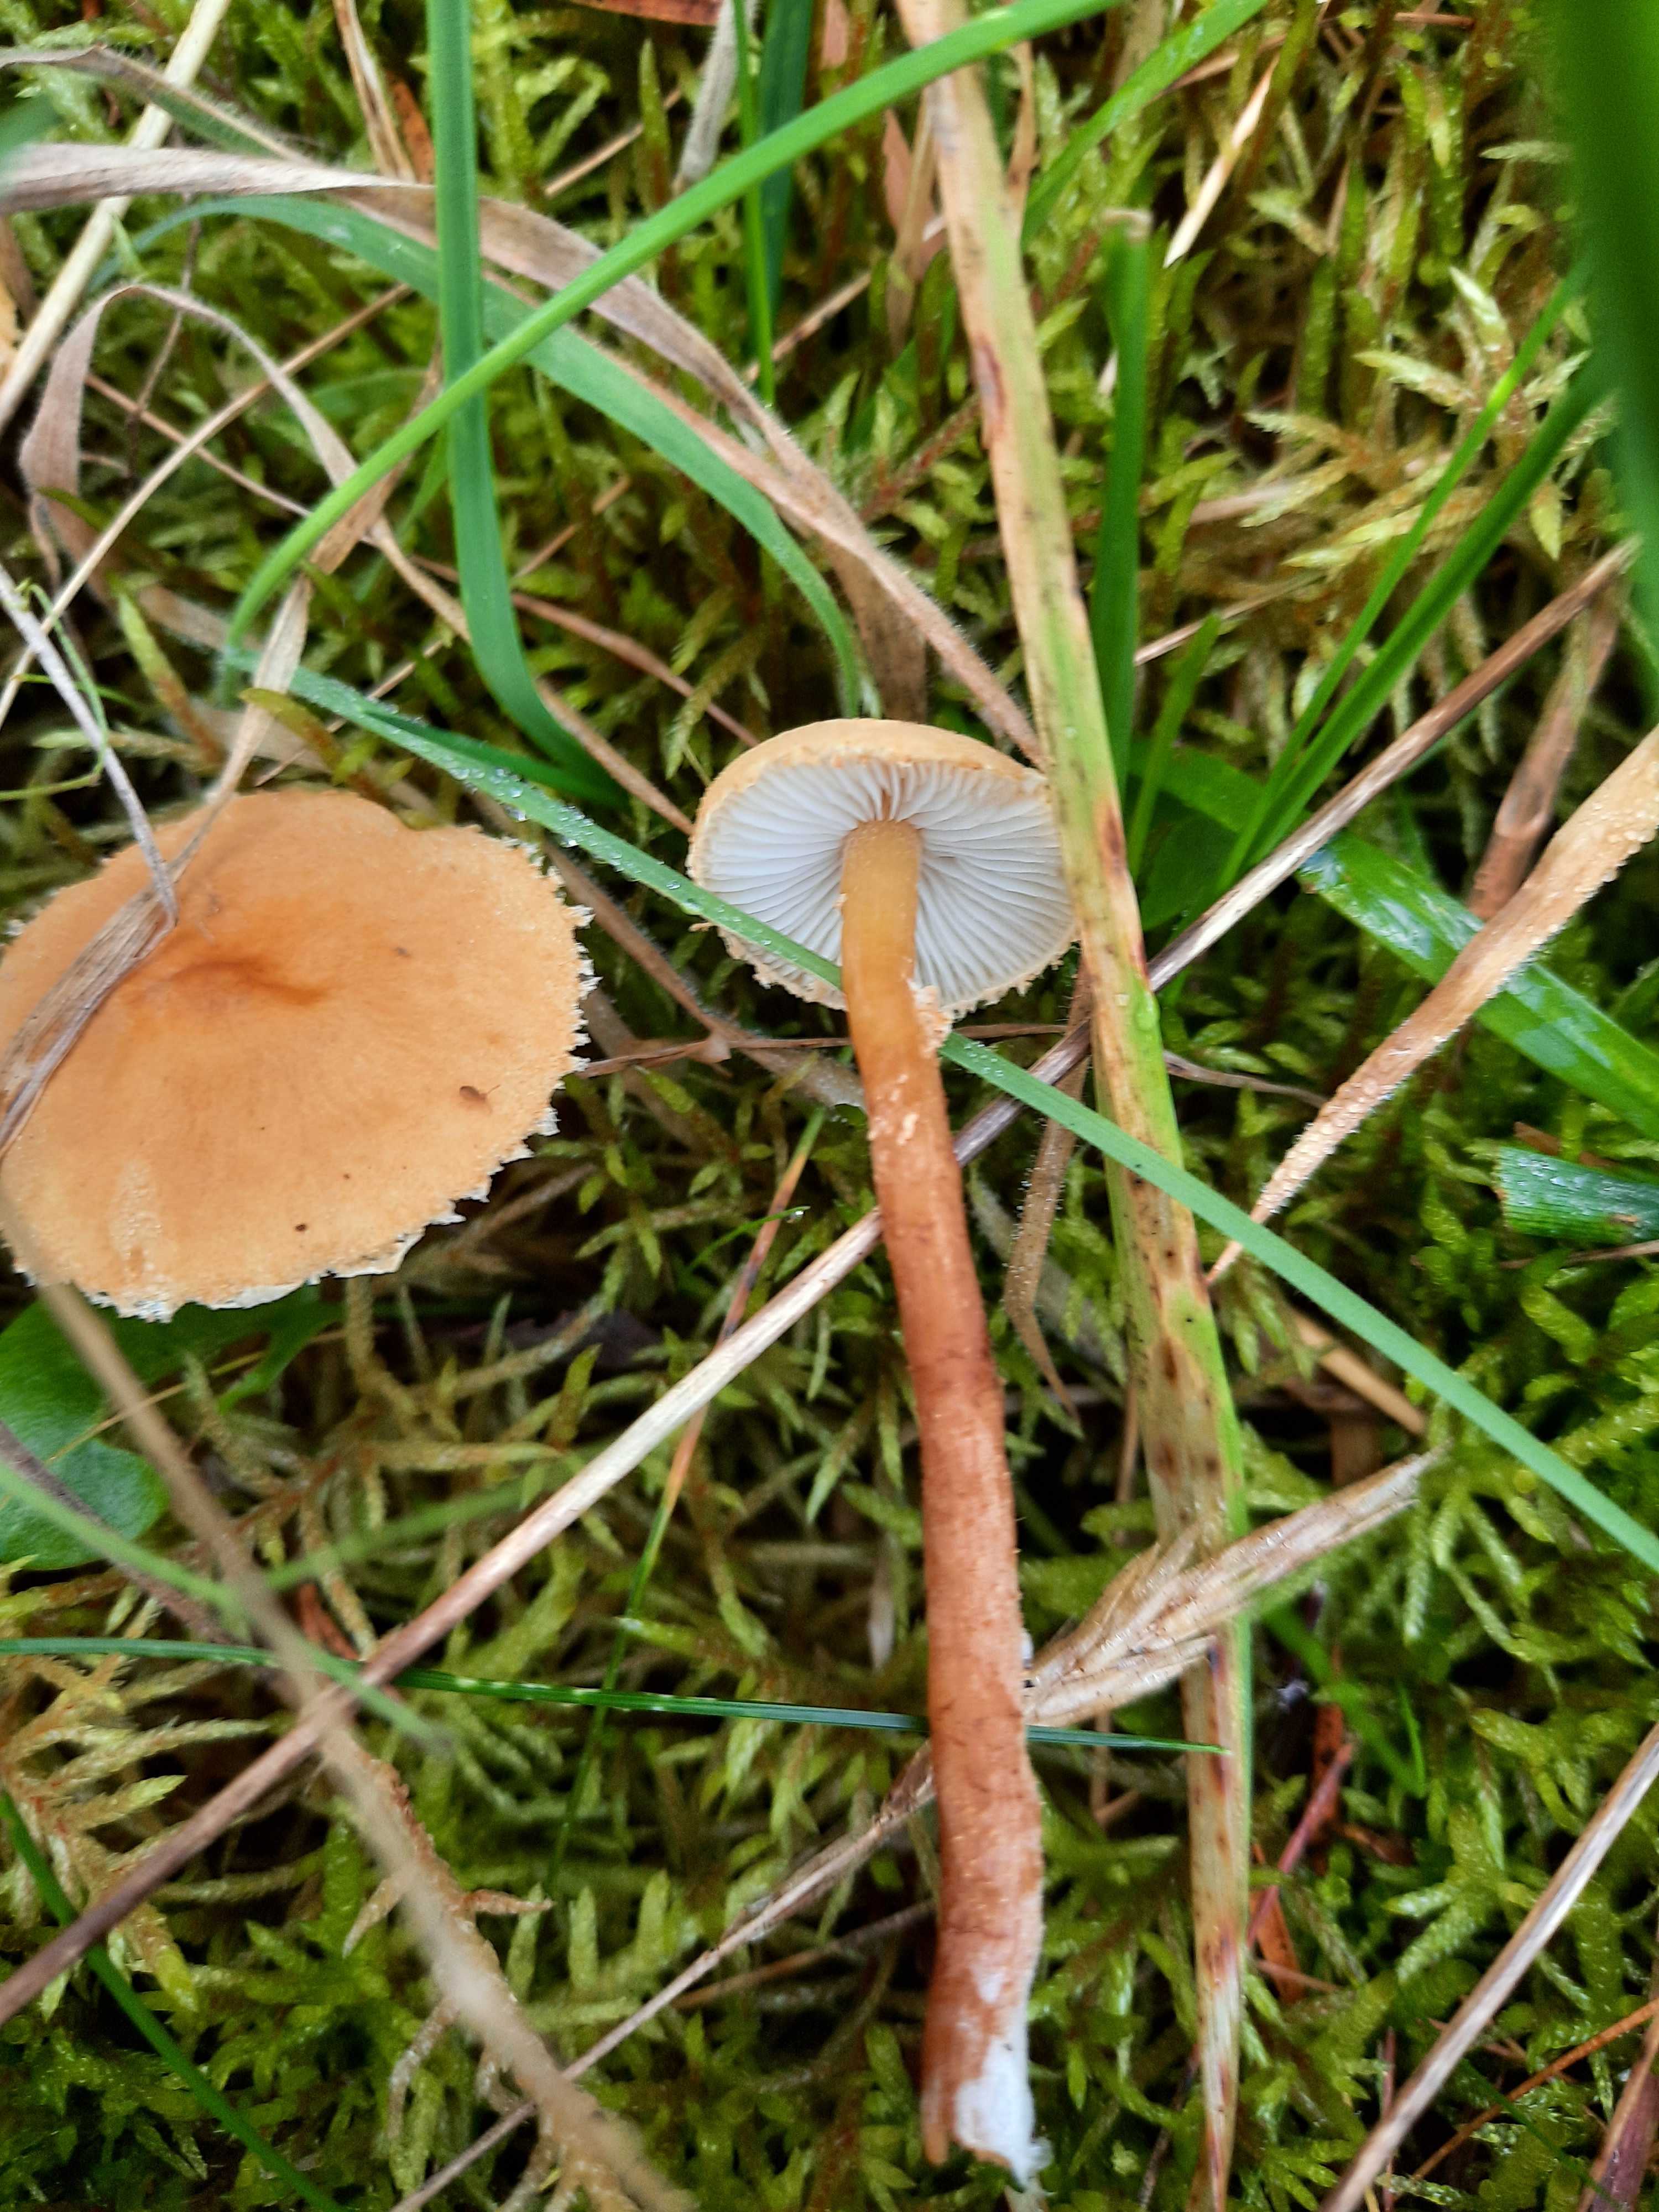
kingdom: Fungi
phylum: Basidiomycota
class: Agaricomycetes
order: Agaricales
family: Tricholomataceae
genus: Cystoderma
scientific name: Cystoderma amianthinum
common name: okkergul grynhat
